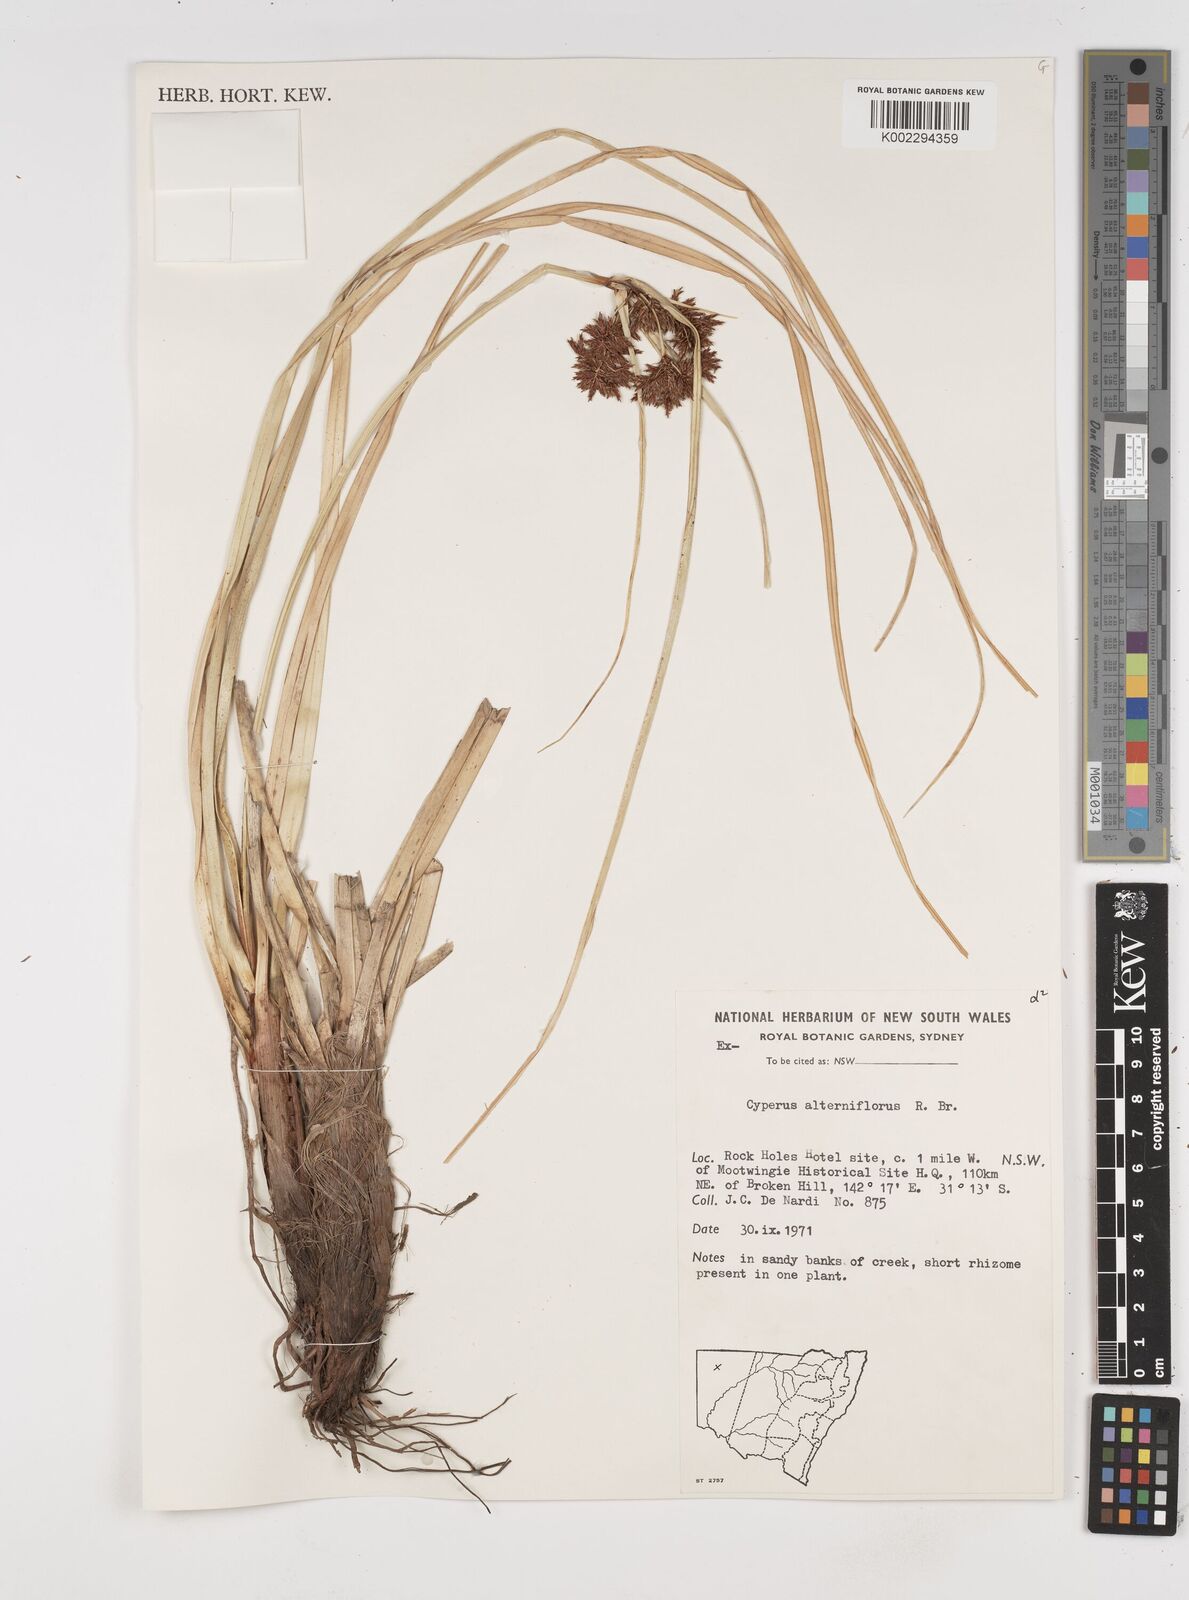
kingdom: Plantae
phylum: Tracheophyta
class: Liliopsida
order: Poales
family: Cyperaceae
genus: Cyperus
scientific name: Cyperus alterniflorus
